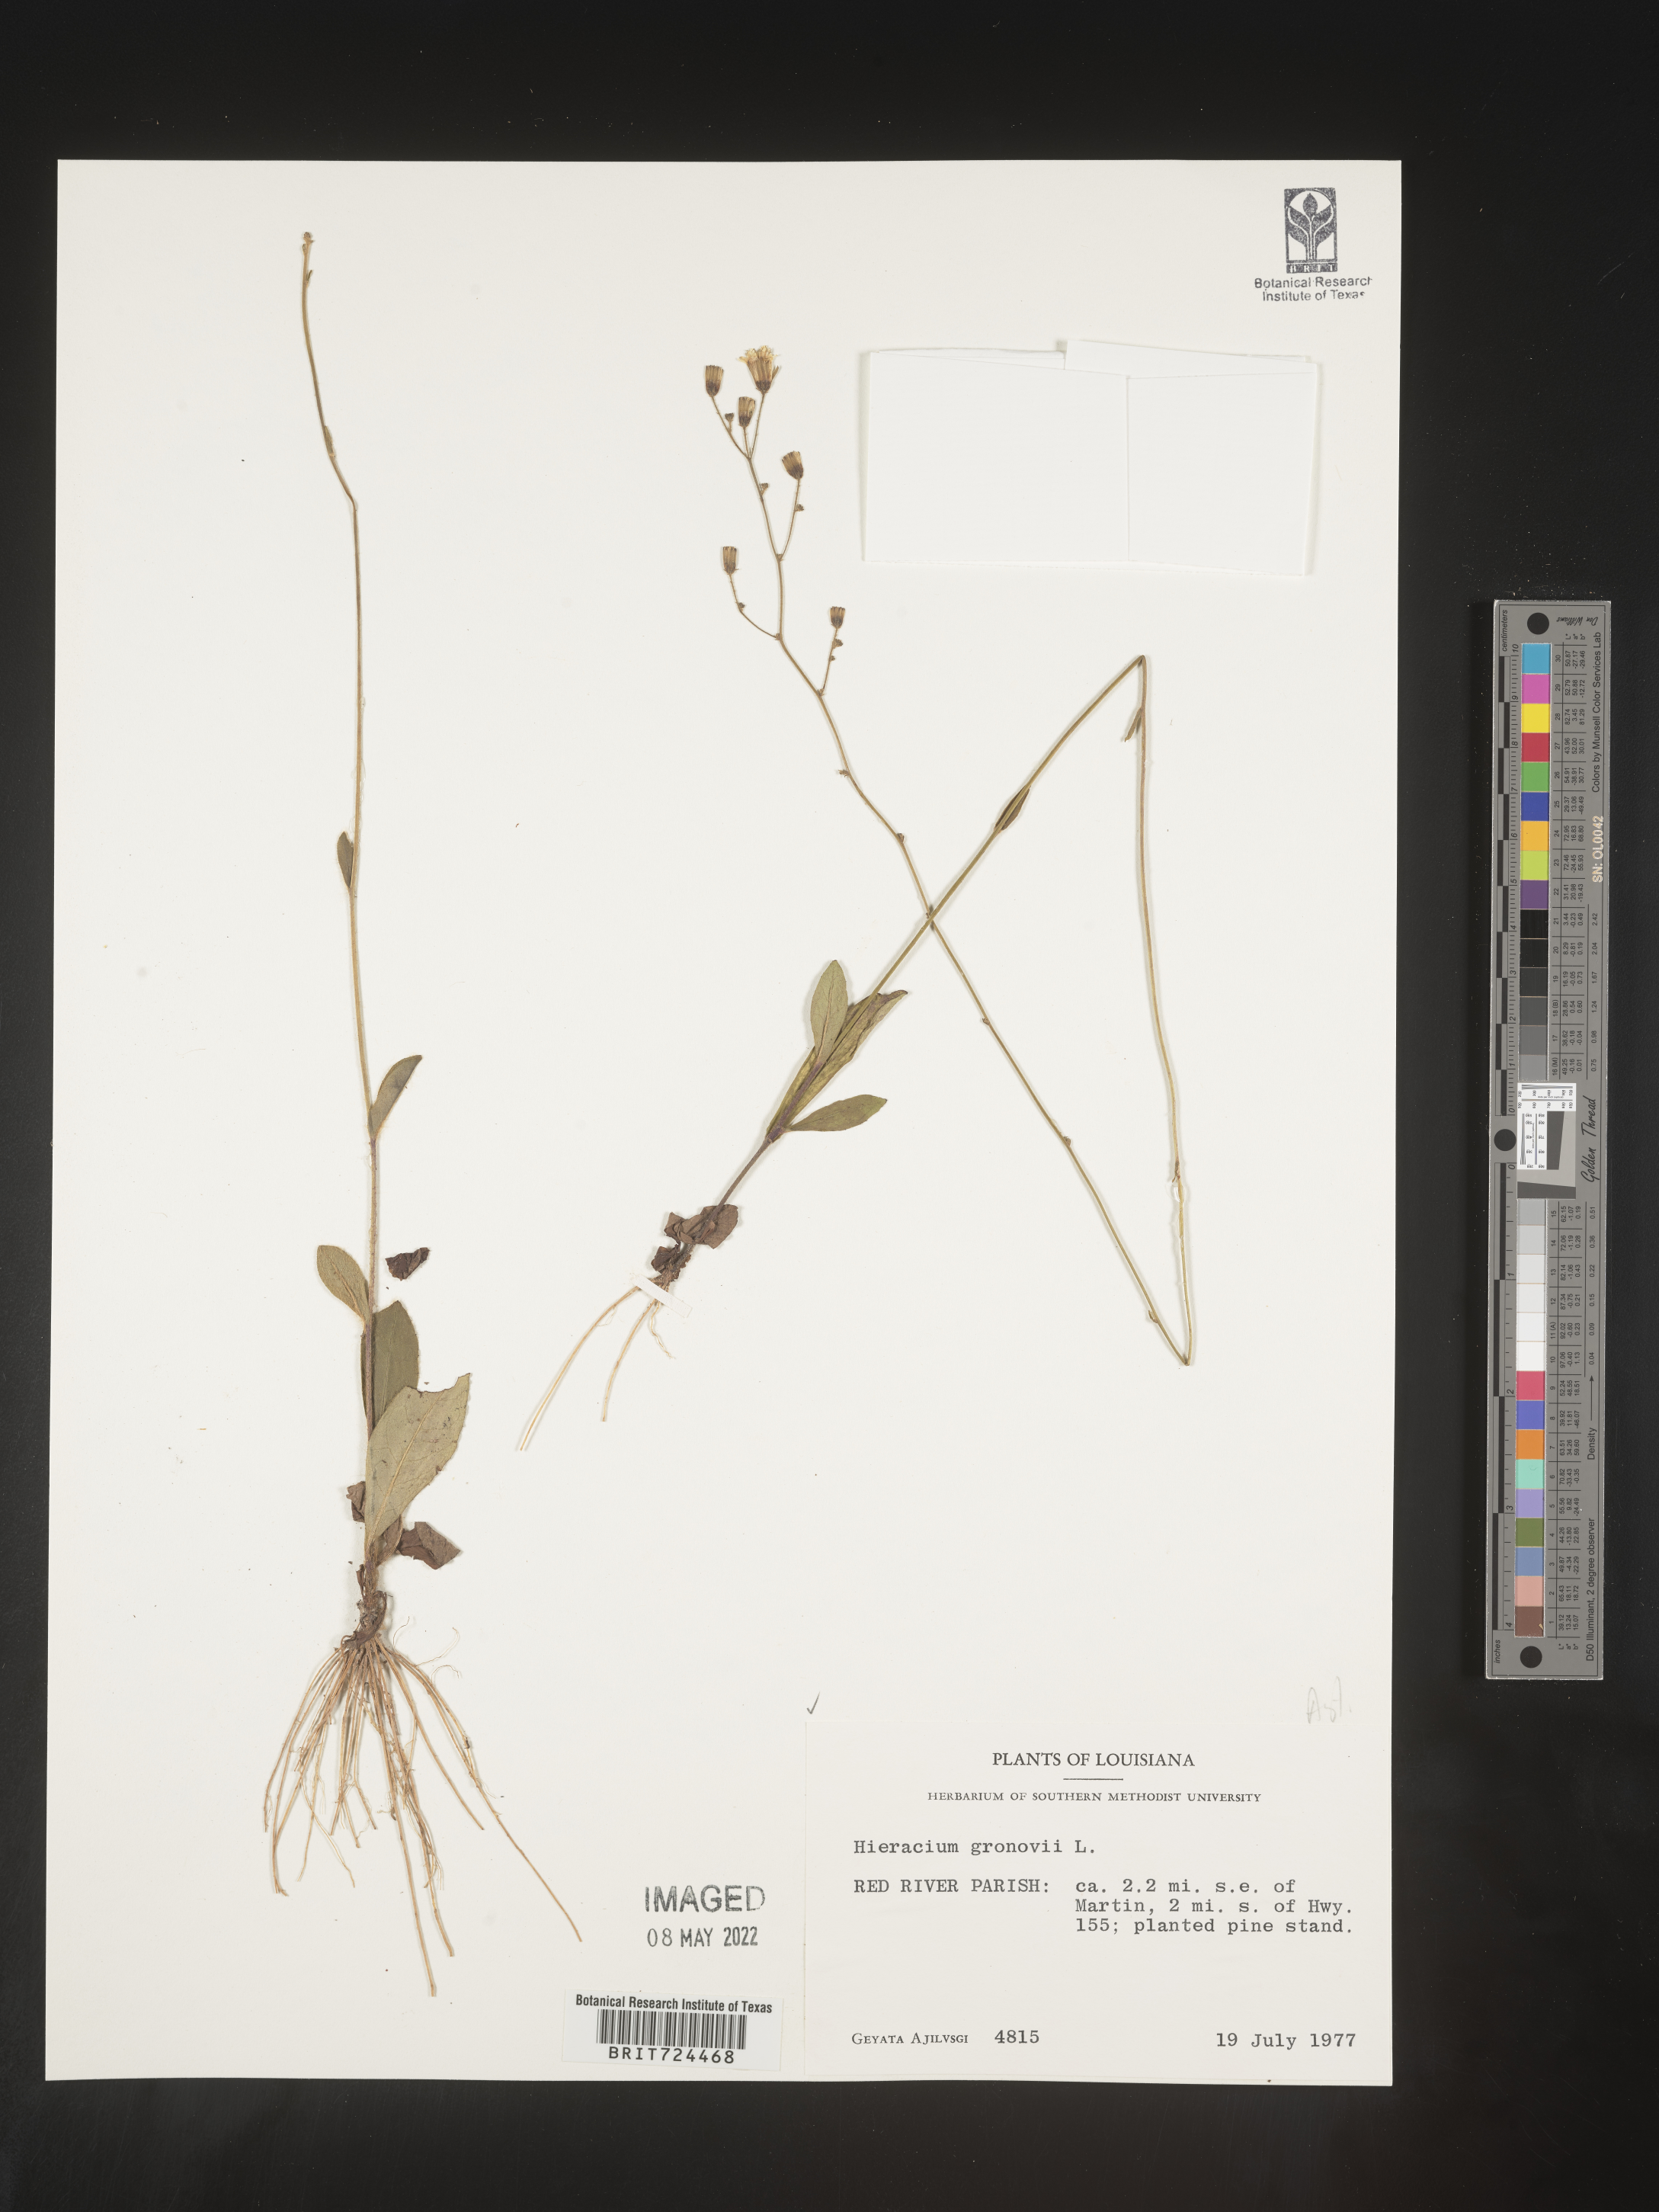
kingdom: Plantae
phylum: Tracheophyta
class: Magnoliopsida
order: Asterales
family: Asteraceae
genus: Hieracium
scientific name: Hieracium gronovii
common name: Beaked hawkweed
